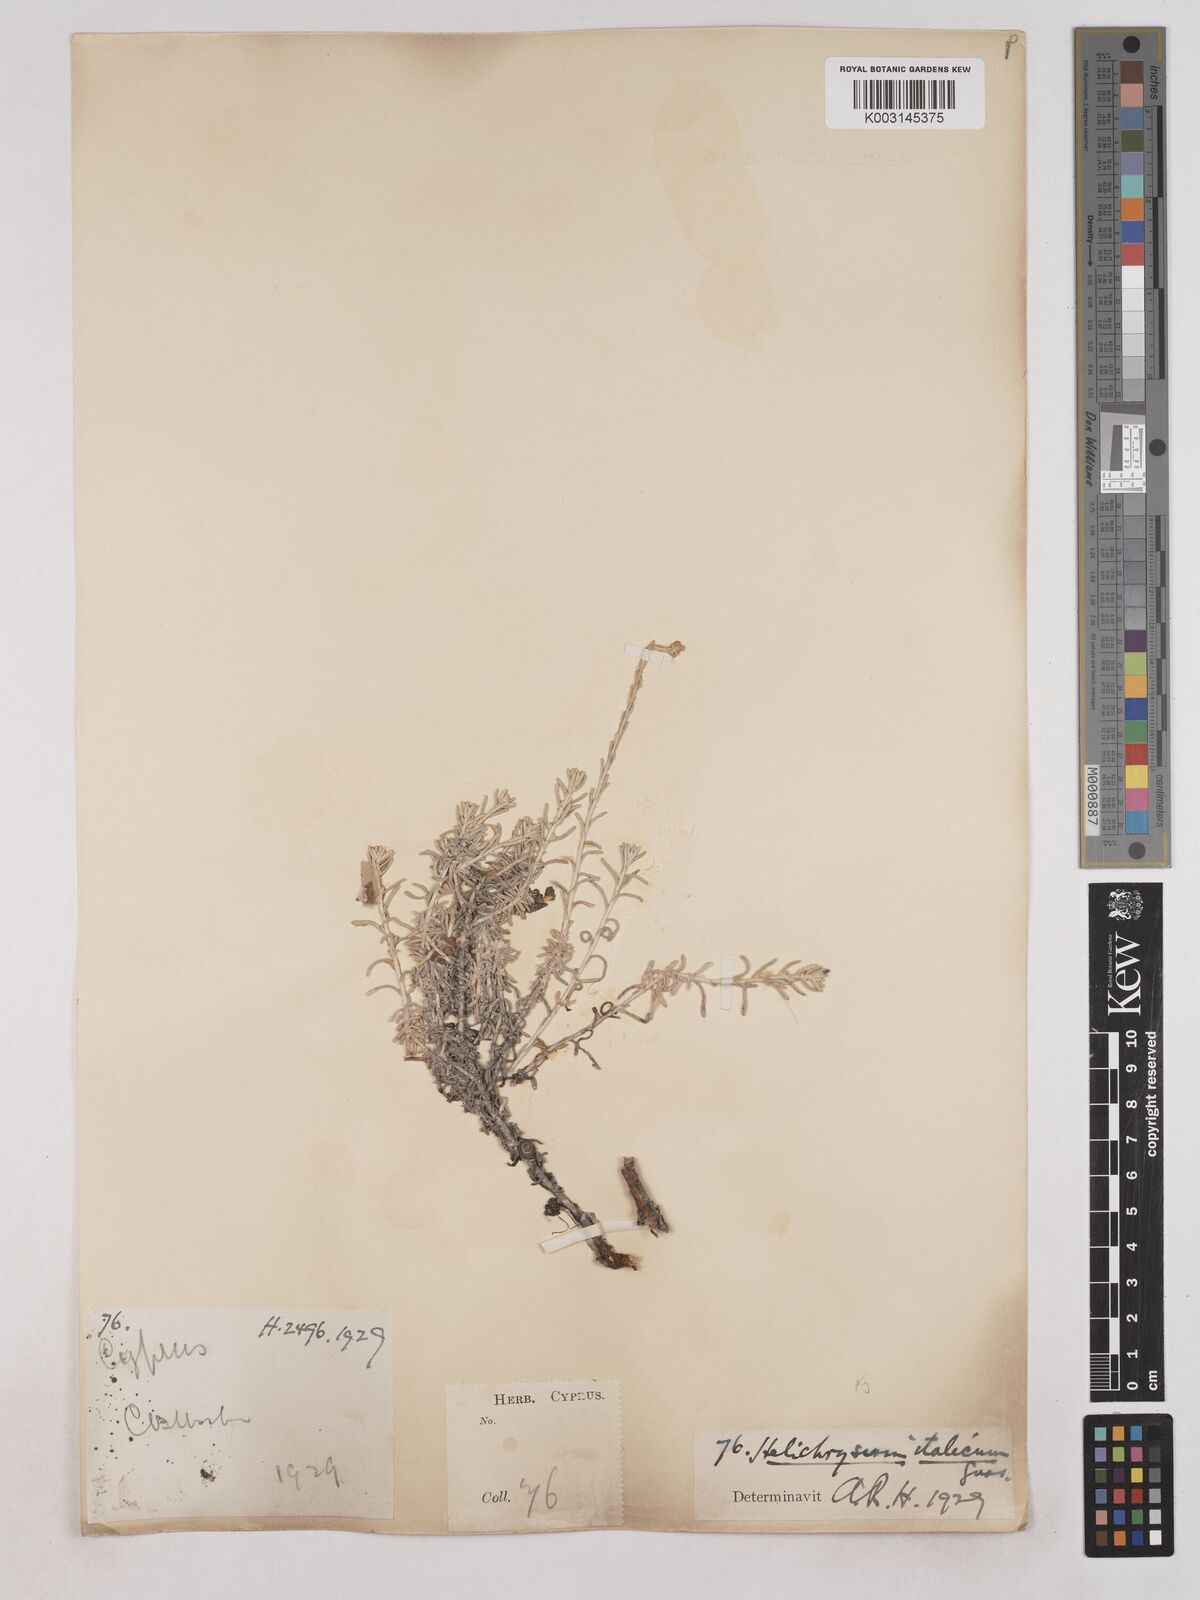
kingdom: Plantae
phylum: Tracheophyta
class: Magnoliopsida
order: Asterales
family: Asteraceae
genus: Helichrysum
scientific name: Helichrysum italicum
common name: Curryplant
